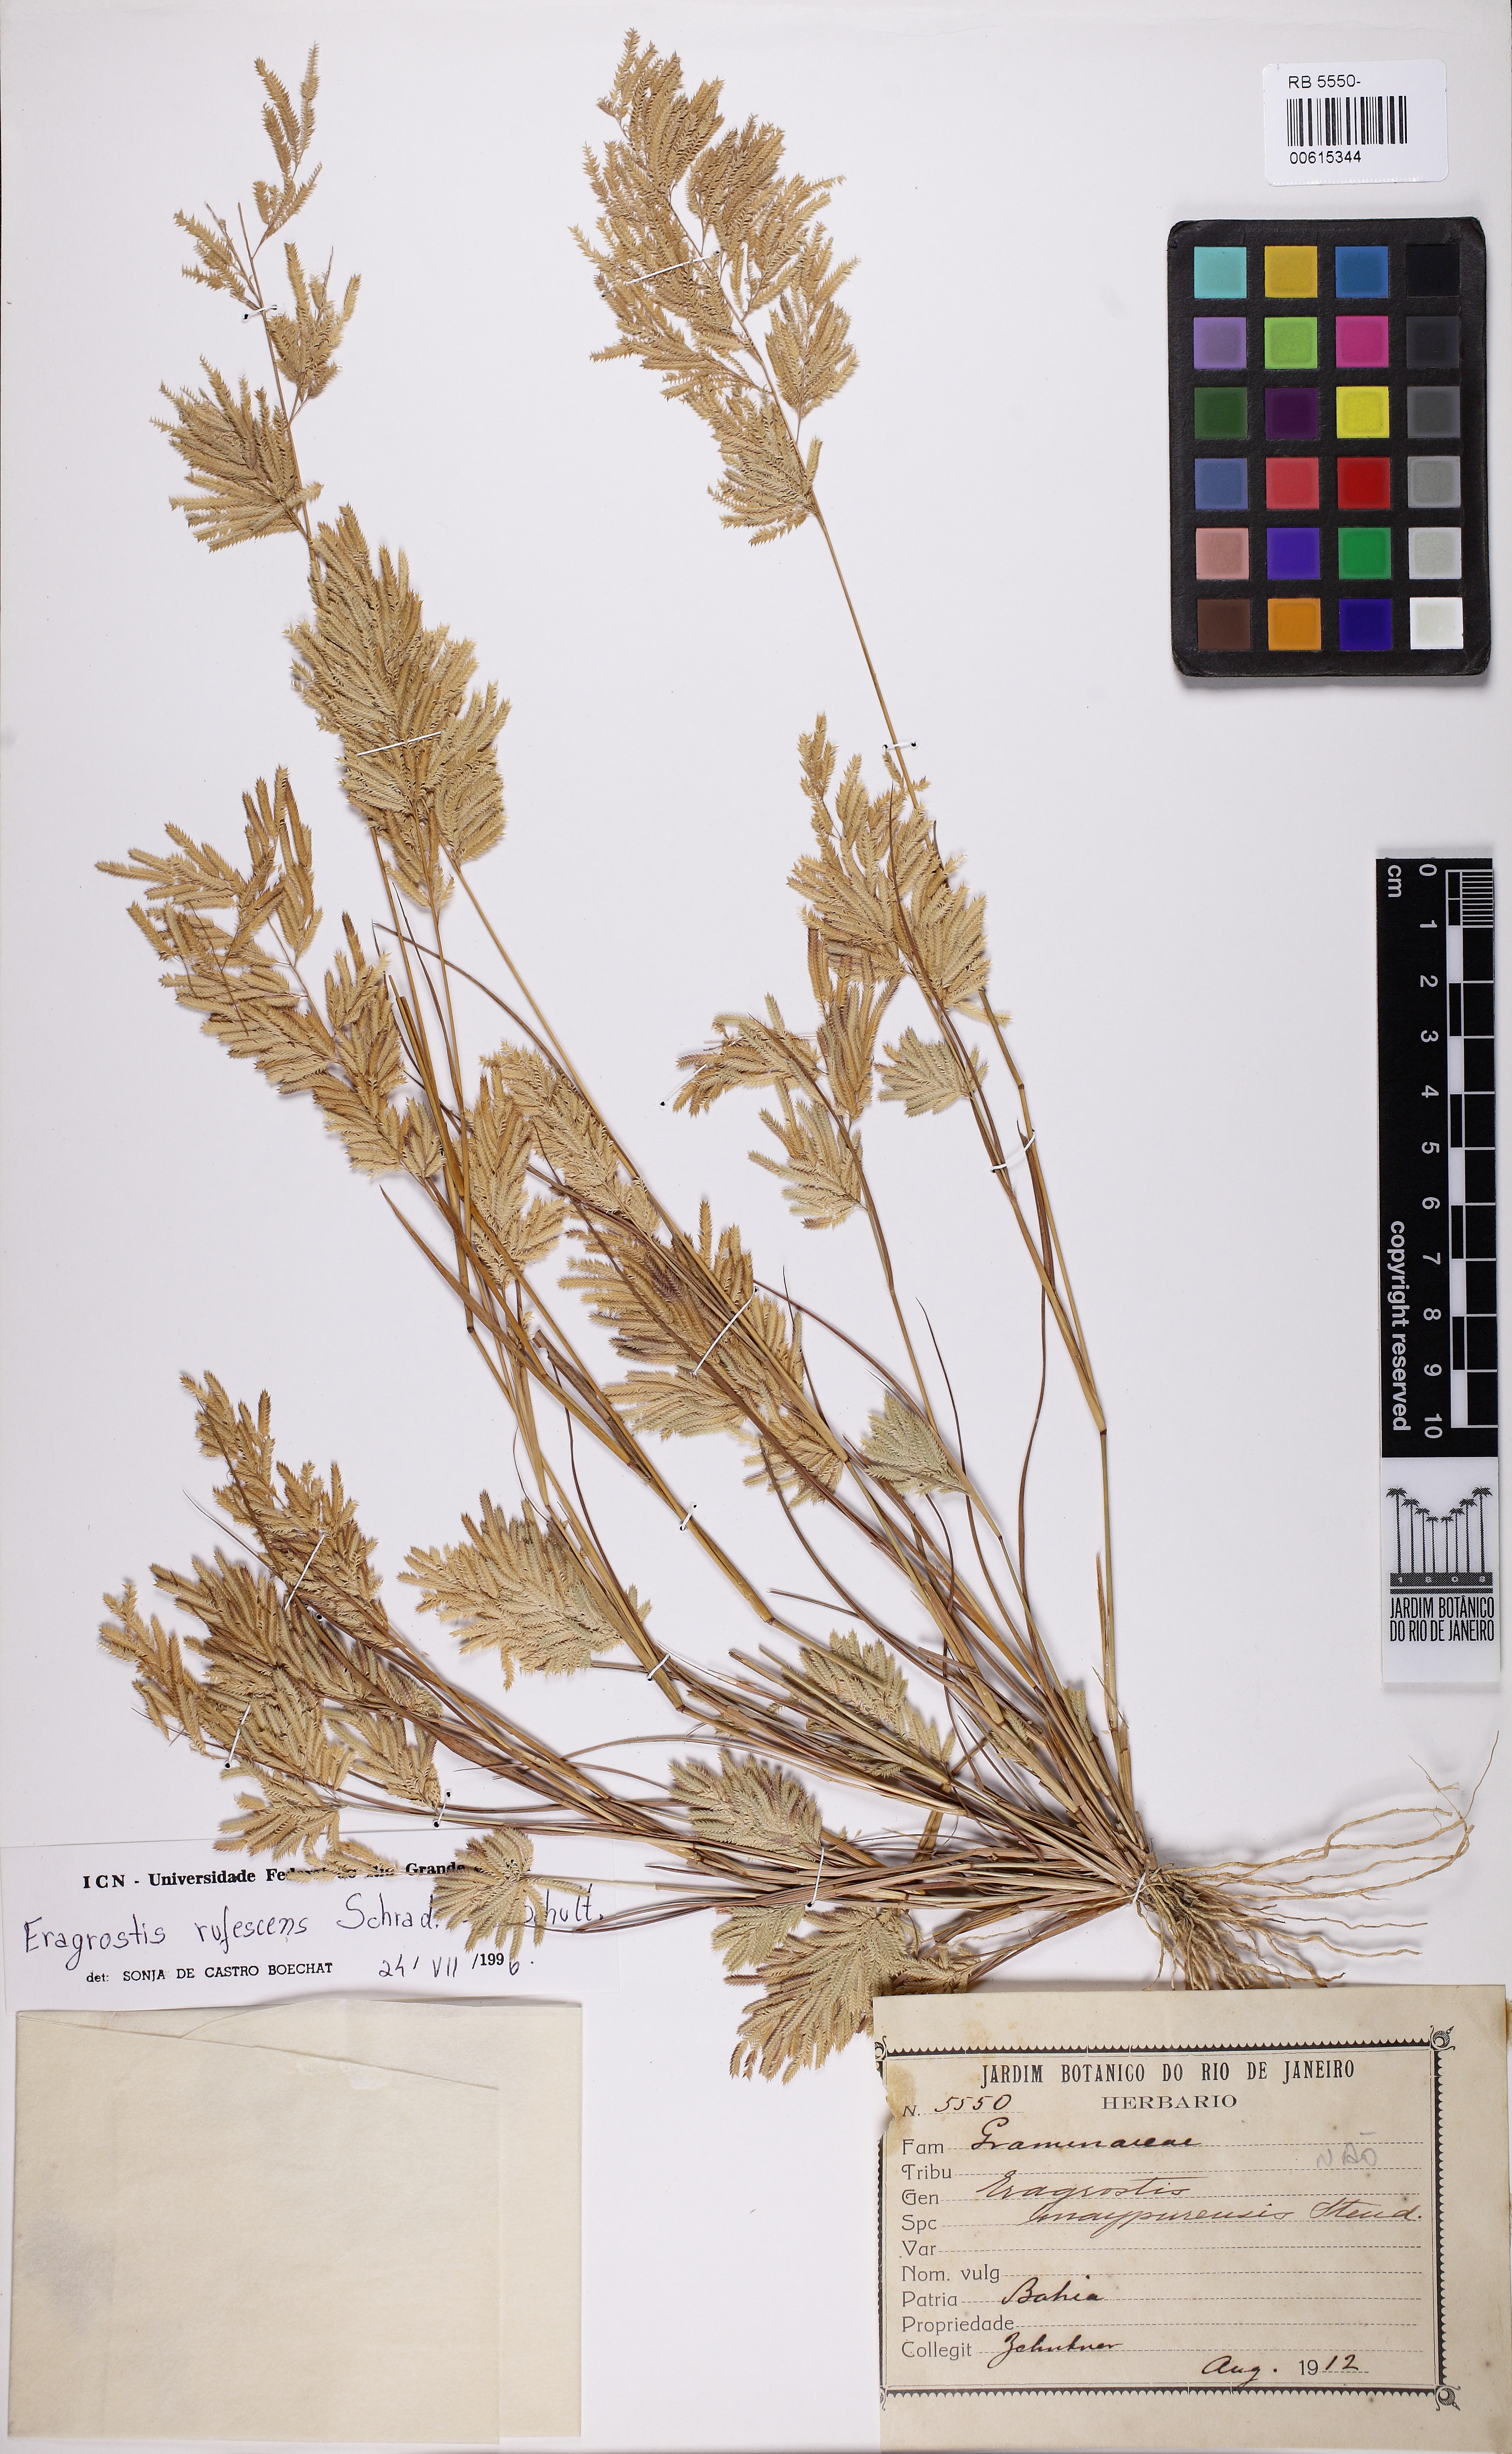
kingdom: Plantae
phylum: Tracheophyta
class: Liliopsida
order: Poales
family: Poaceae
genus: Eragrostis
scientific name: Eragrostis rufescens
